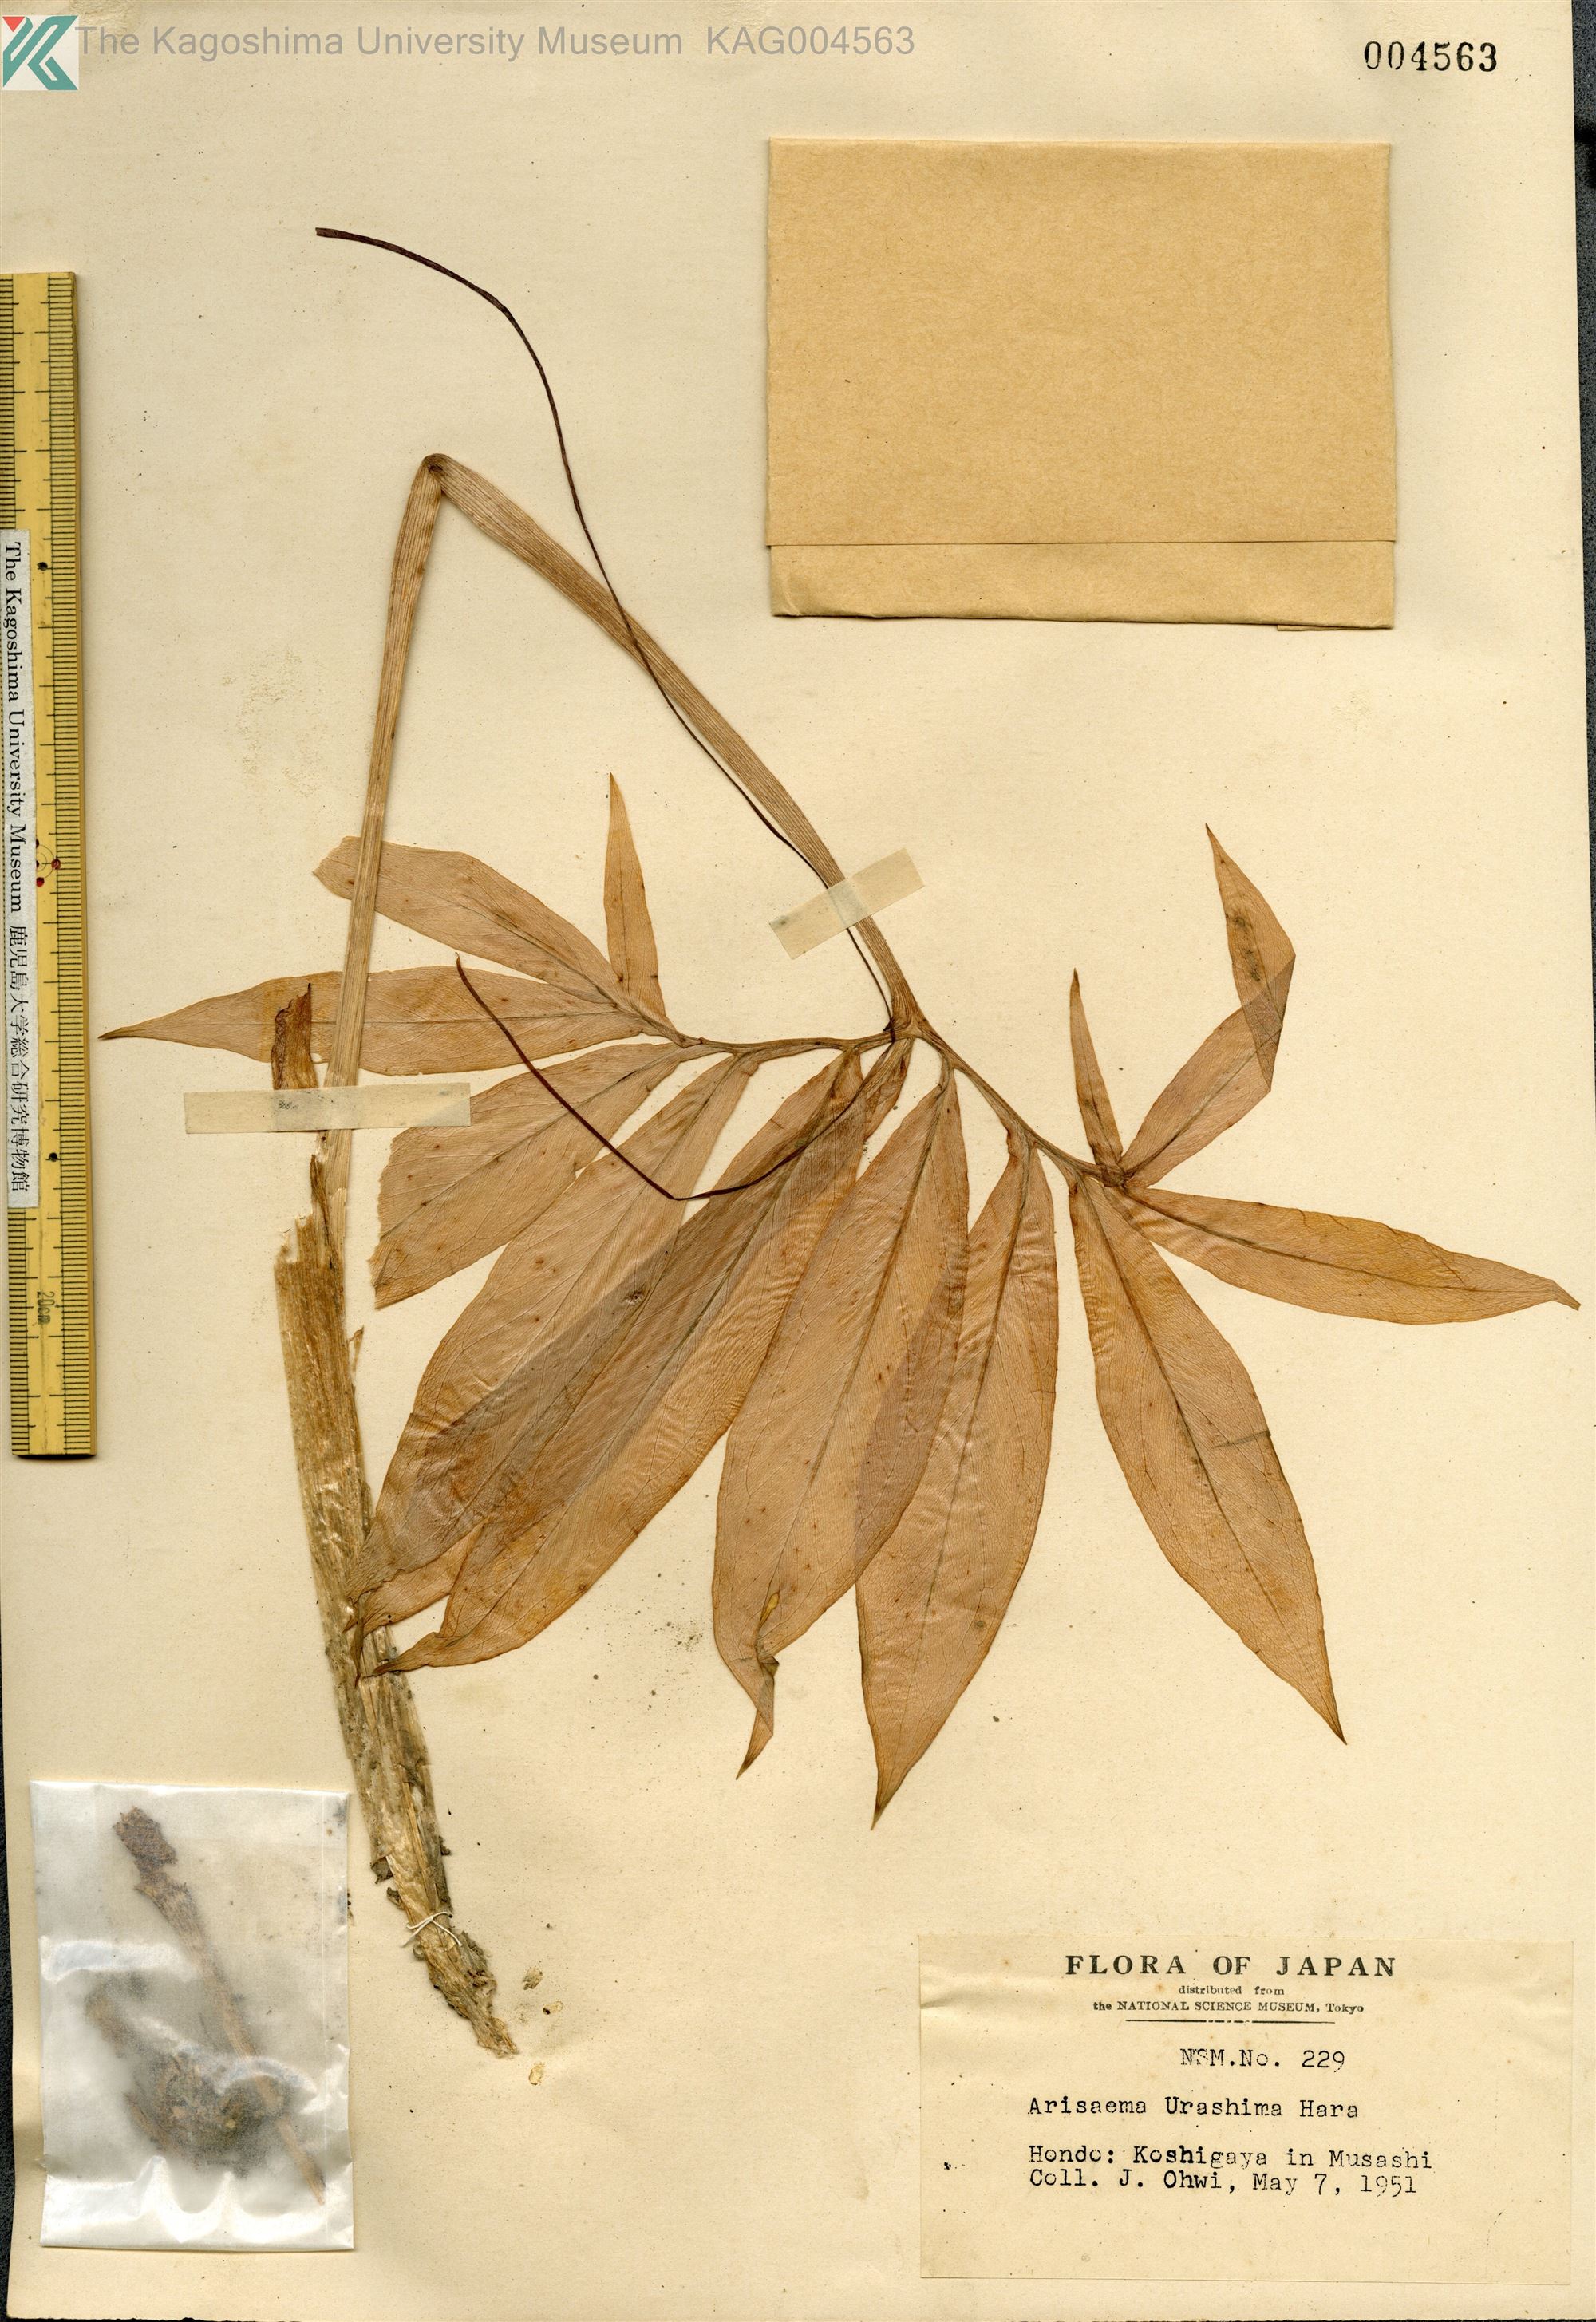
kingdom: Plantae
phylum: Tracheophyta
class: Liliopsida
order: Alismatales
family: Araceae
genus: Arisaema
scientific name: Arisaema thunbergii
